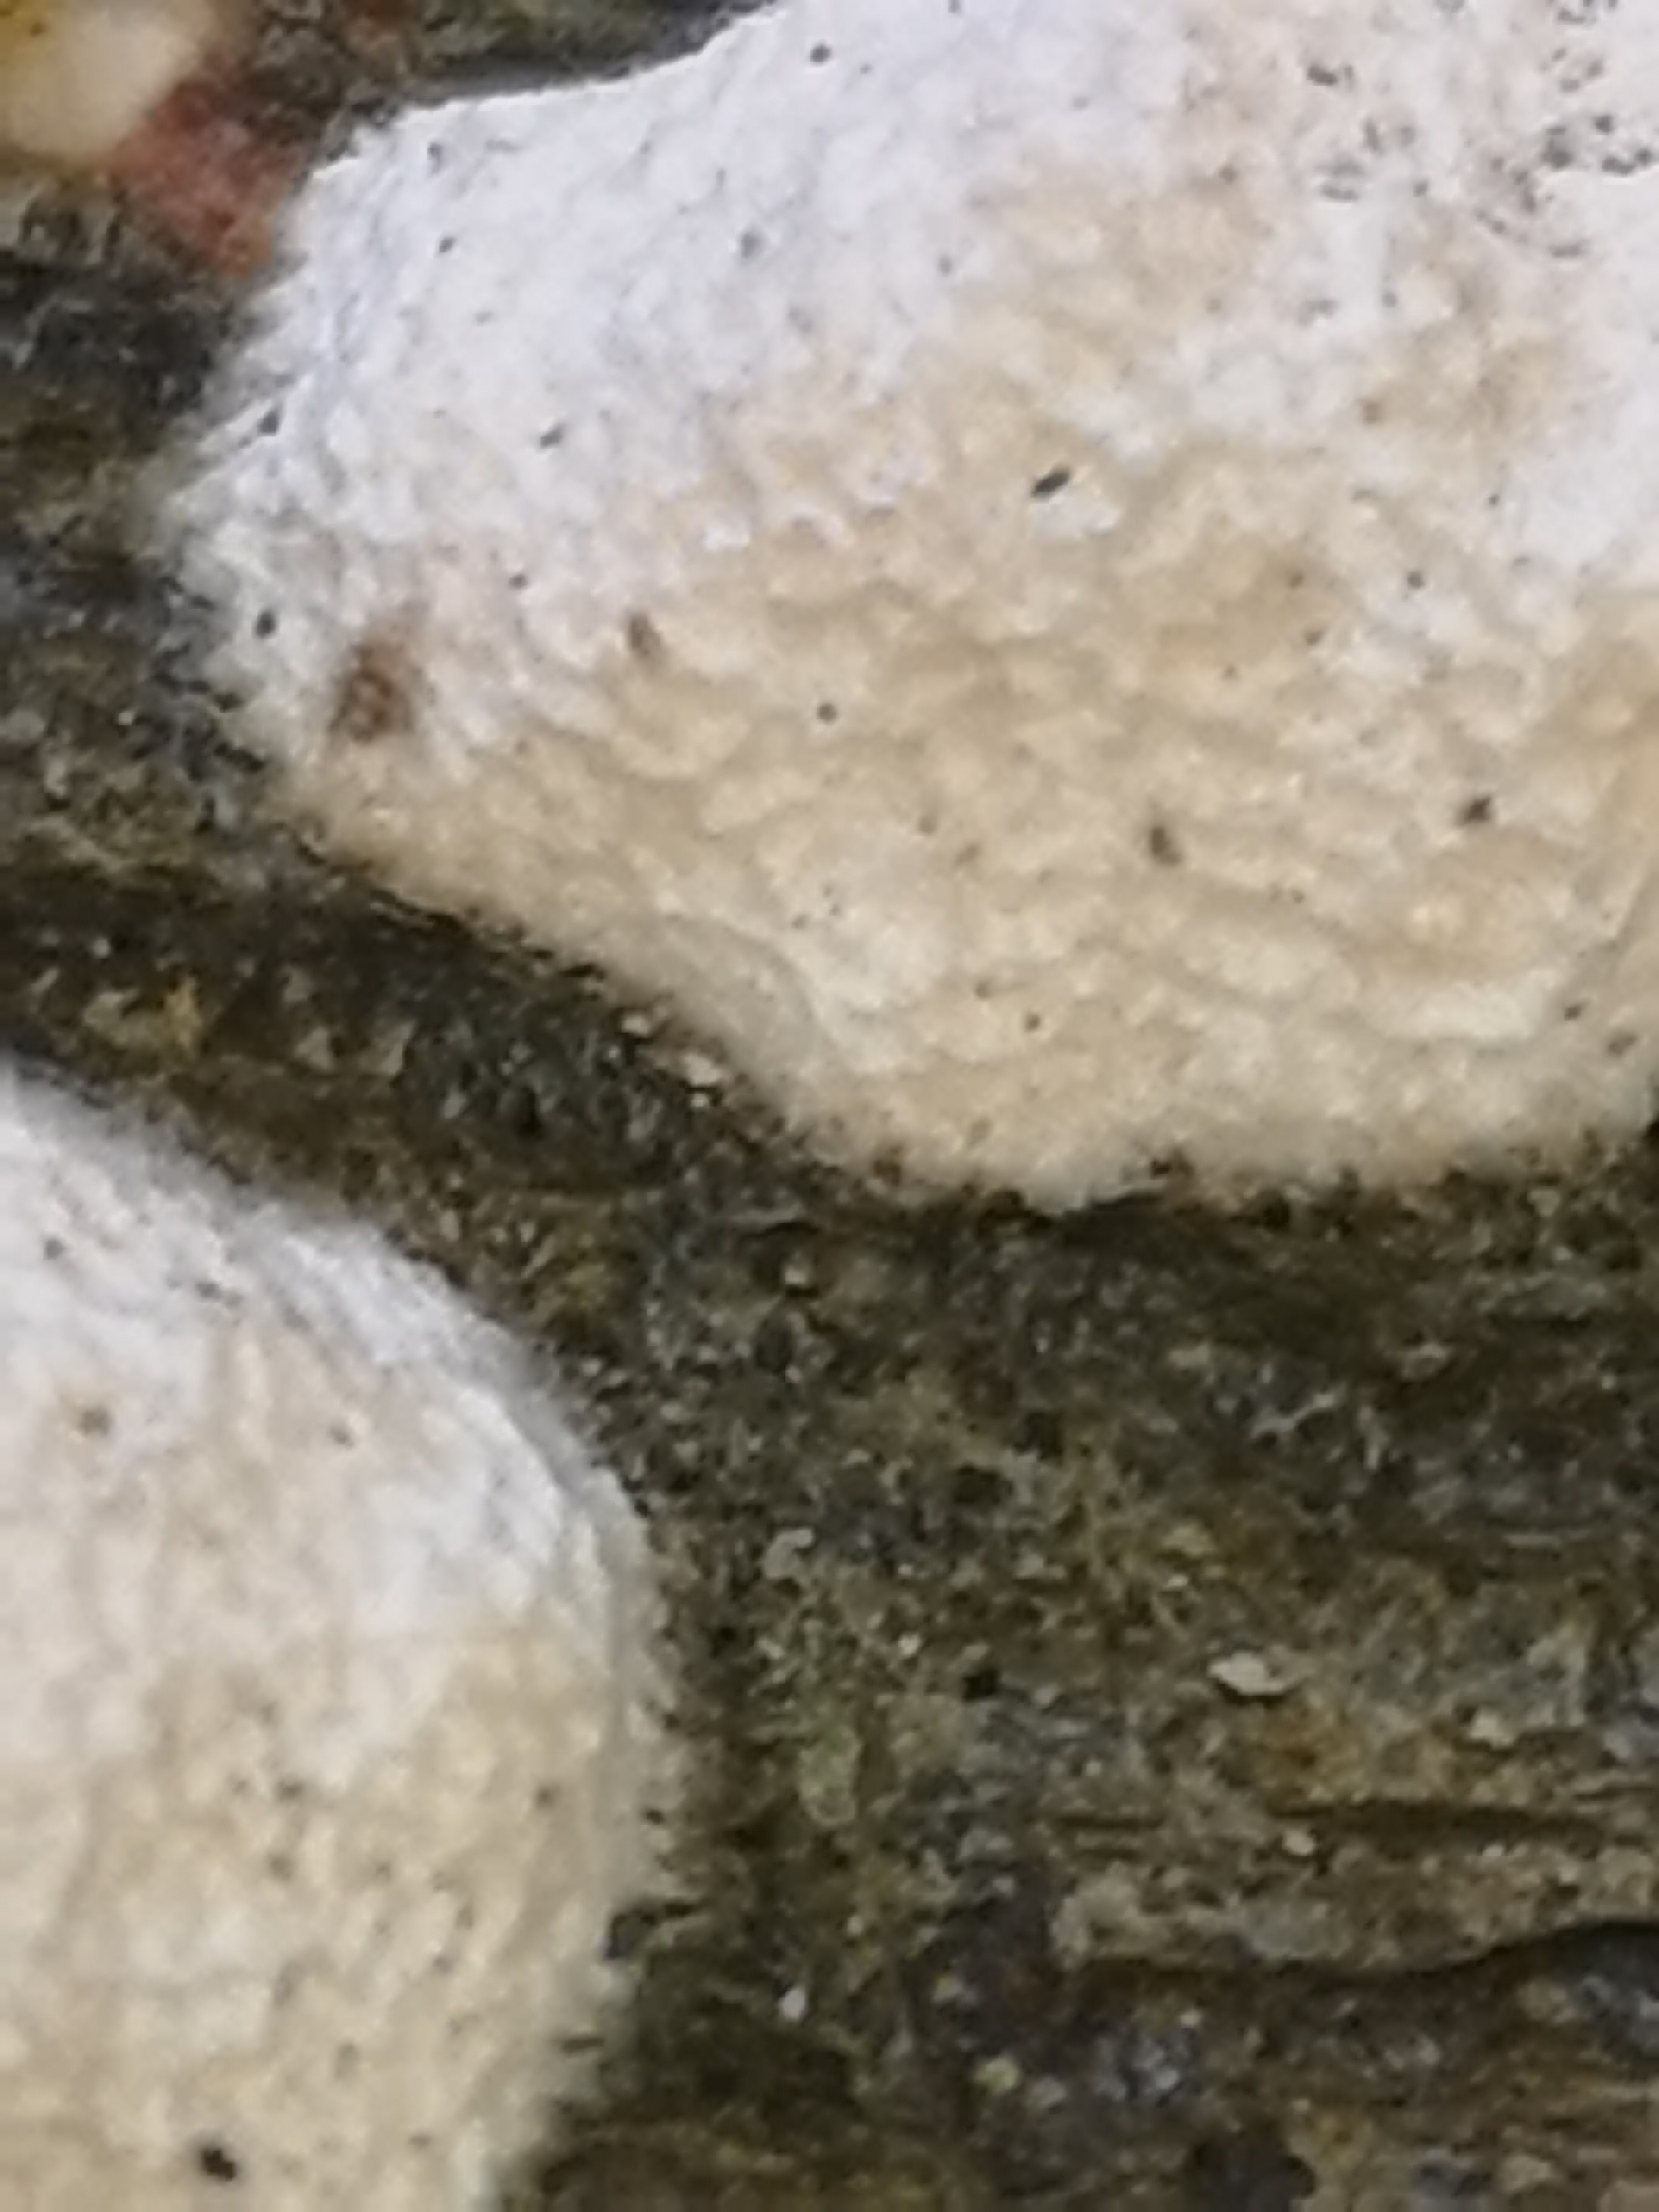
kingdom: Fungi
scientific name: Fungi
